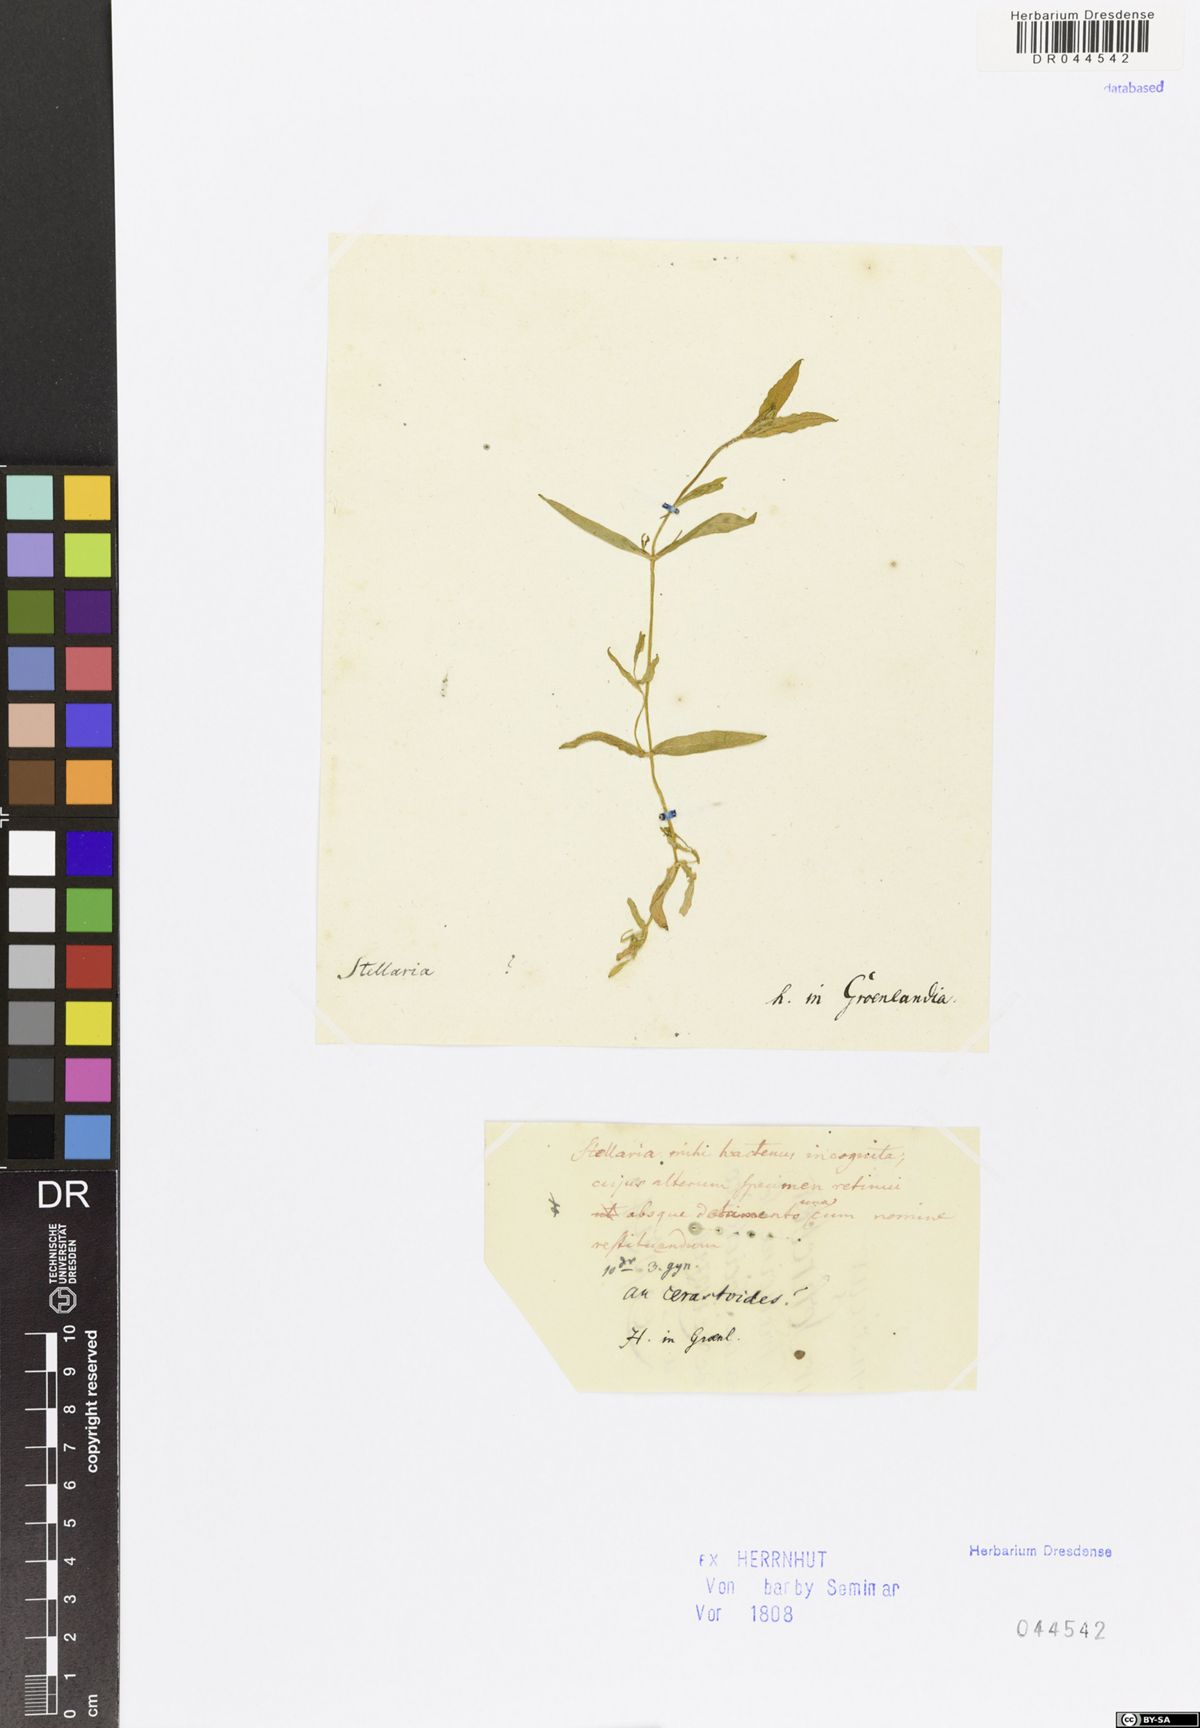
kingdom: Plantae
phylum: Tracheophyta
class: Magnoliopsida
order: Caryophyllales
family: Caryophyllaceae
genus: Dichodon
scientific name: Dichodon cerastoides
